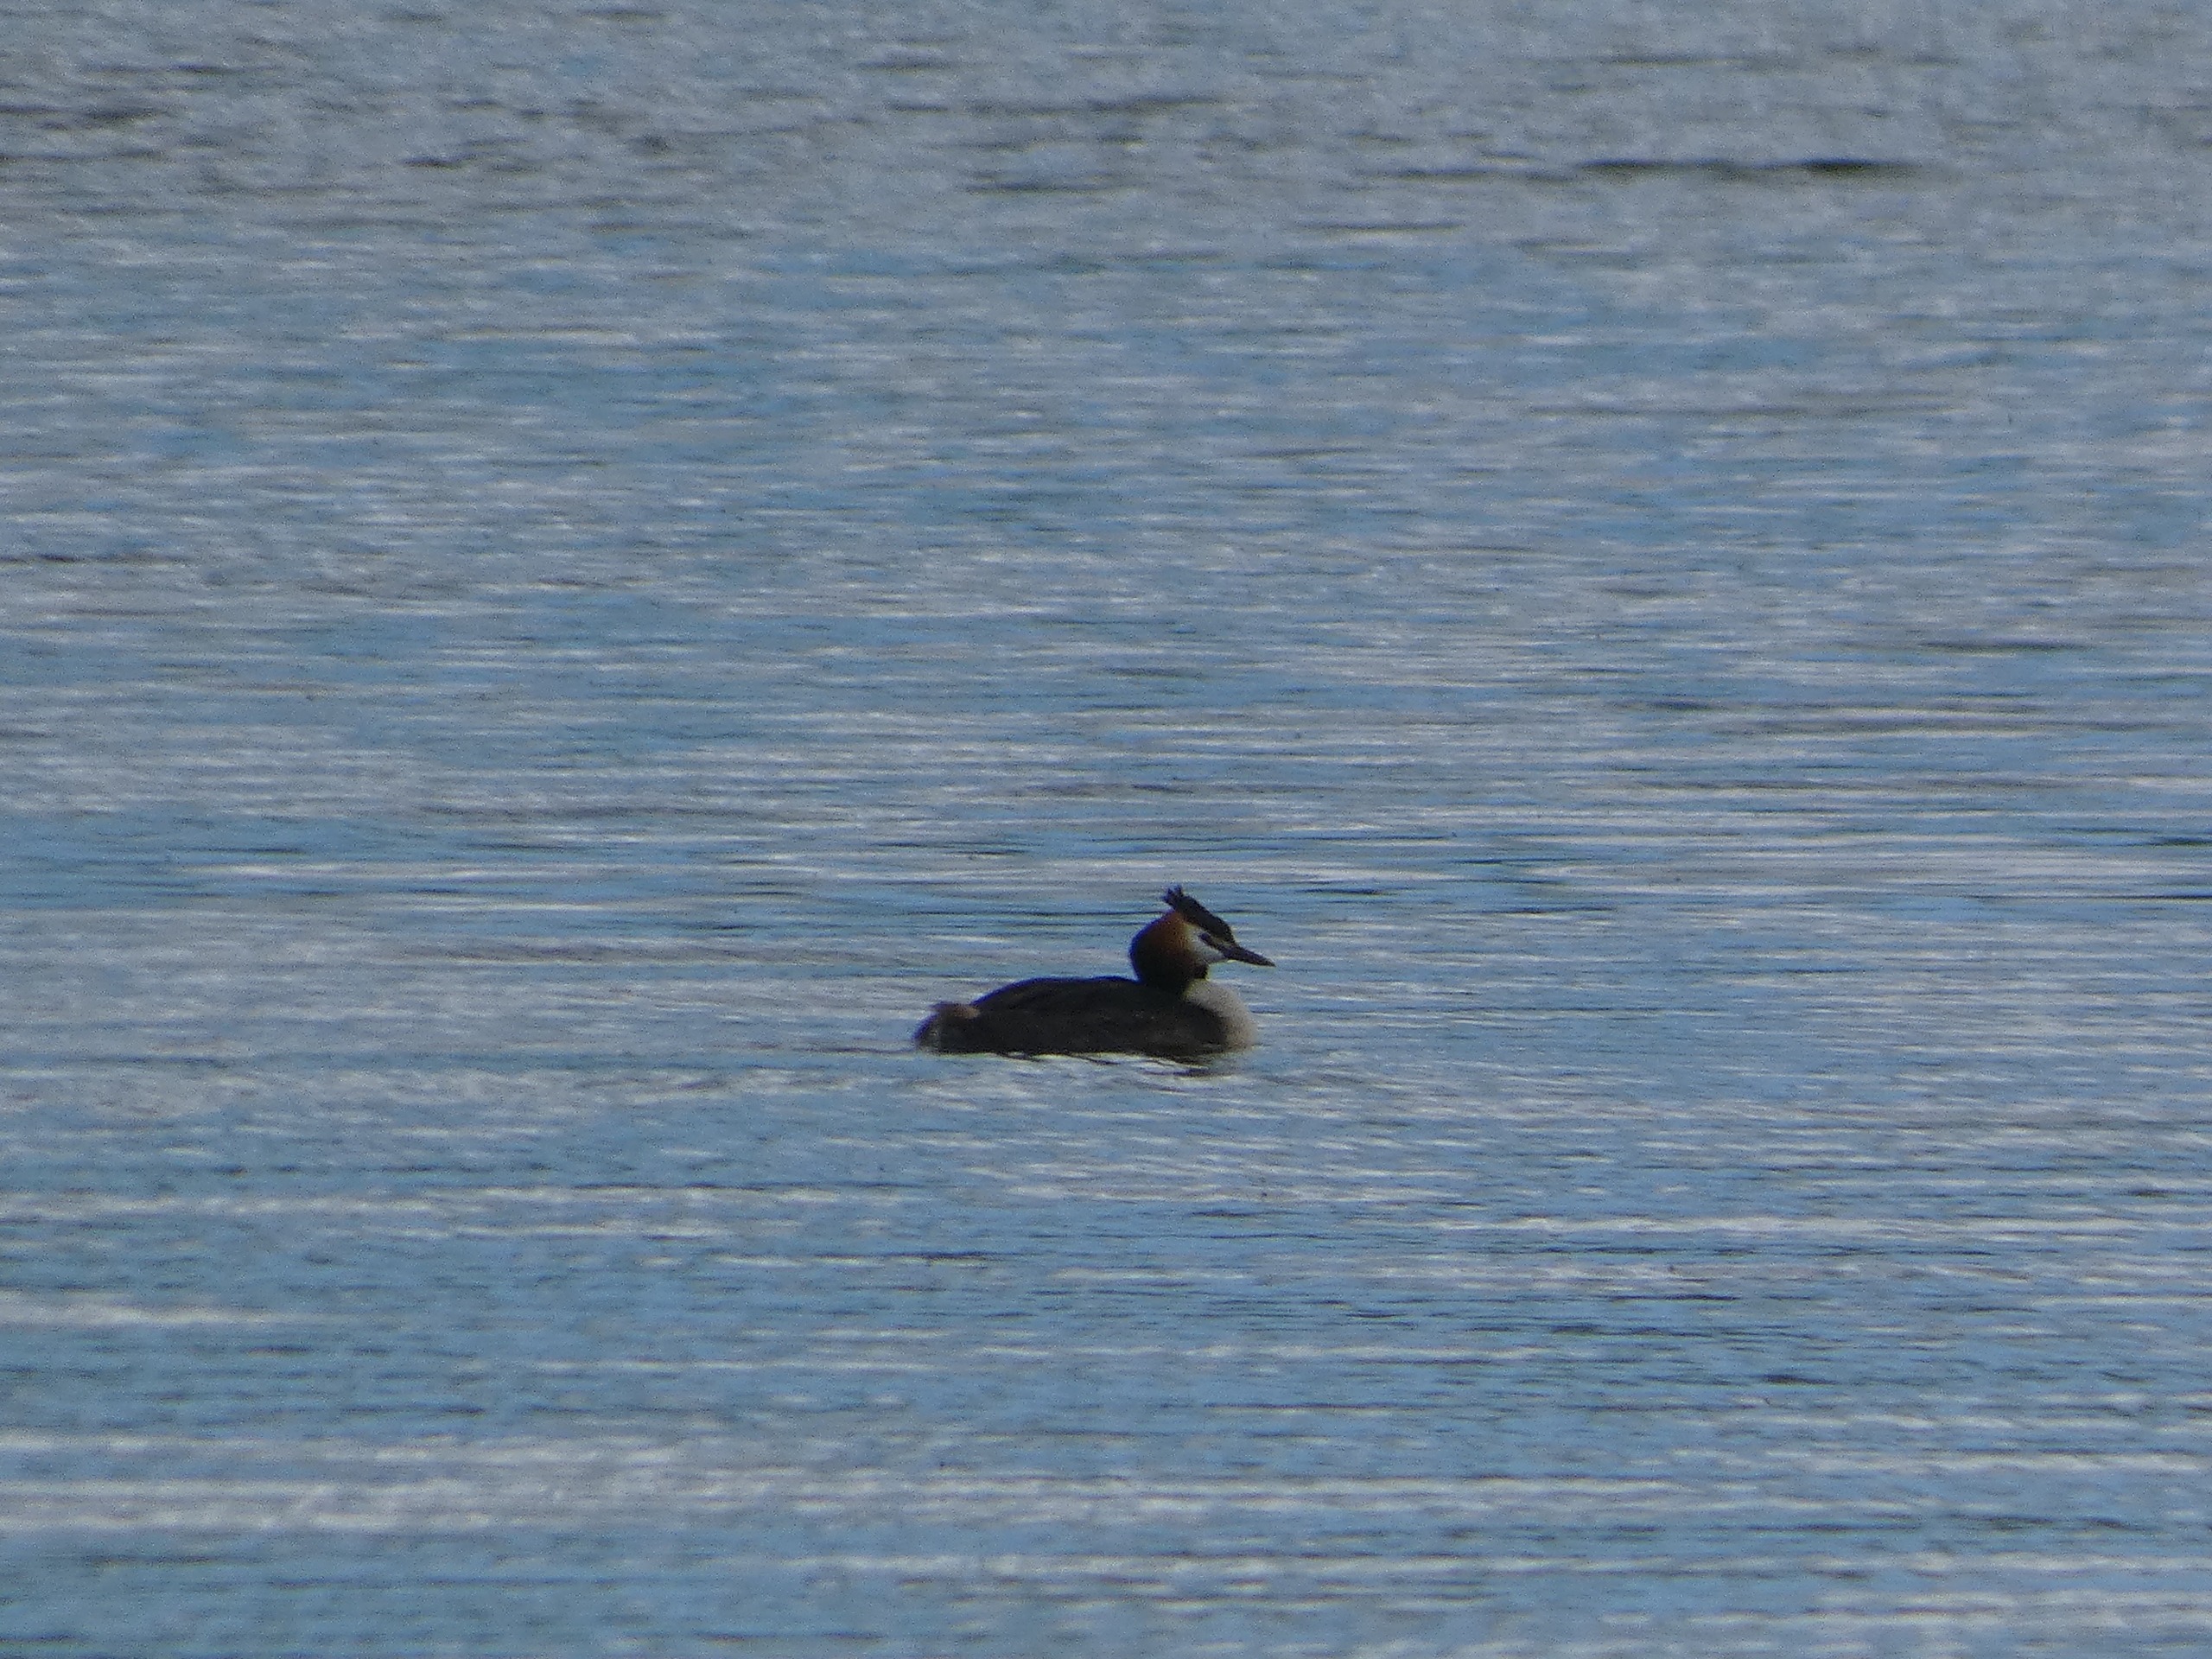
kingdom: Animalia
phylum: Chordata
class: Aves
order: Podicipediformes
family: Podicipedidae
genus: Podiceps
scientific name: Podiceps cristatus
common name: Toppet lappedykker
